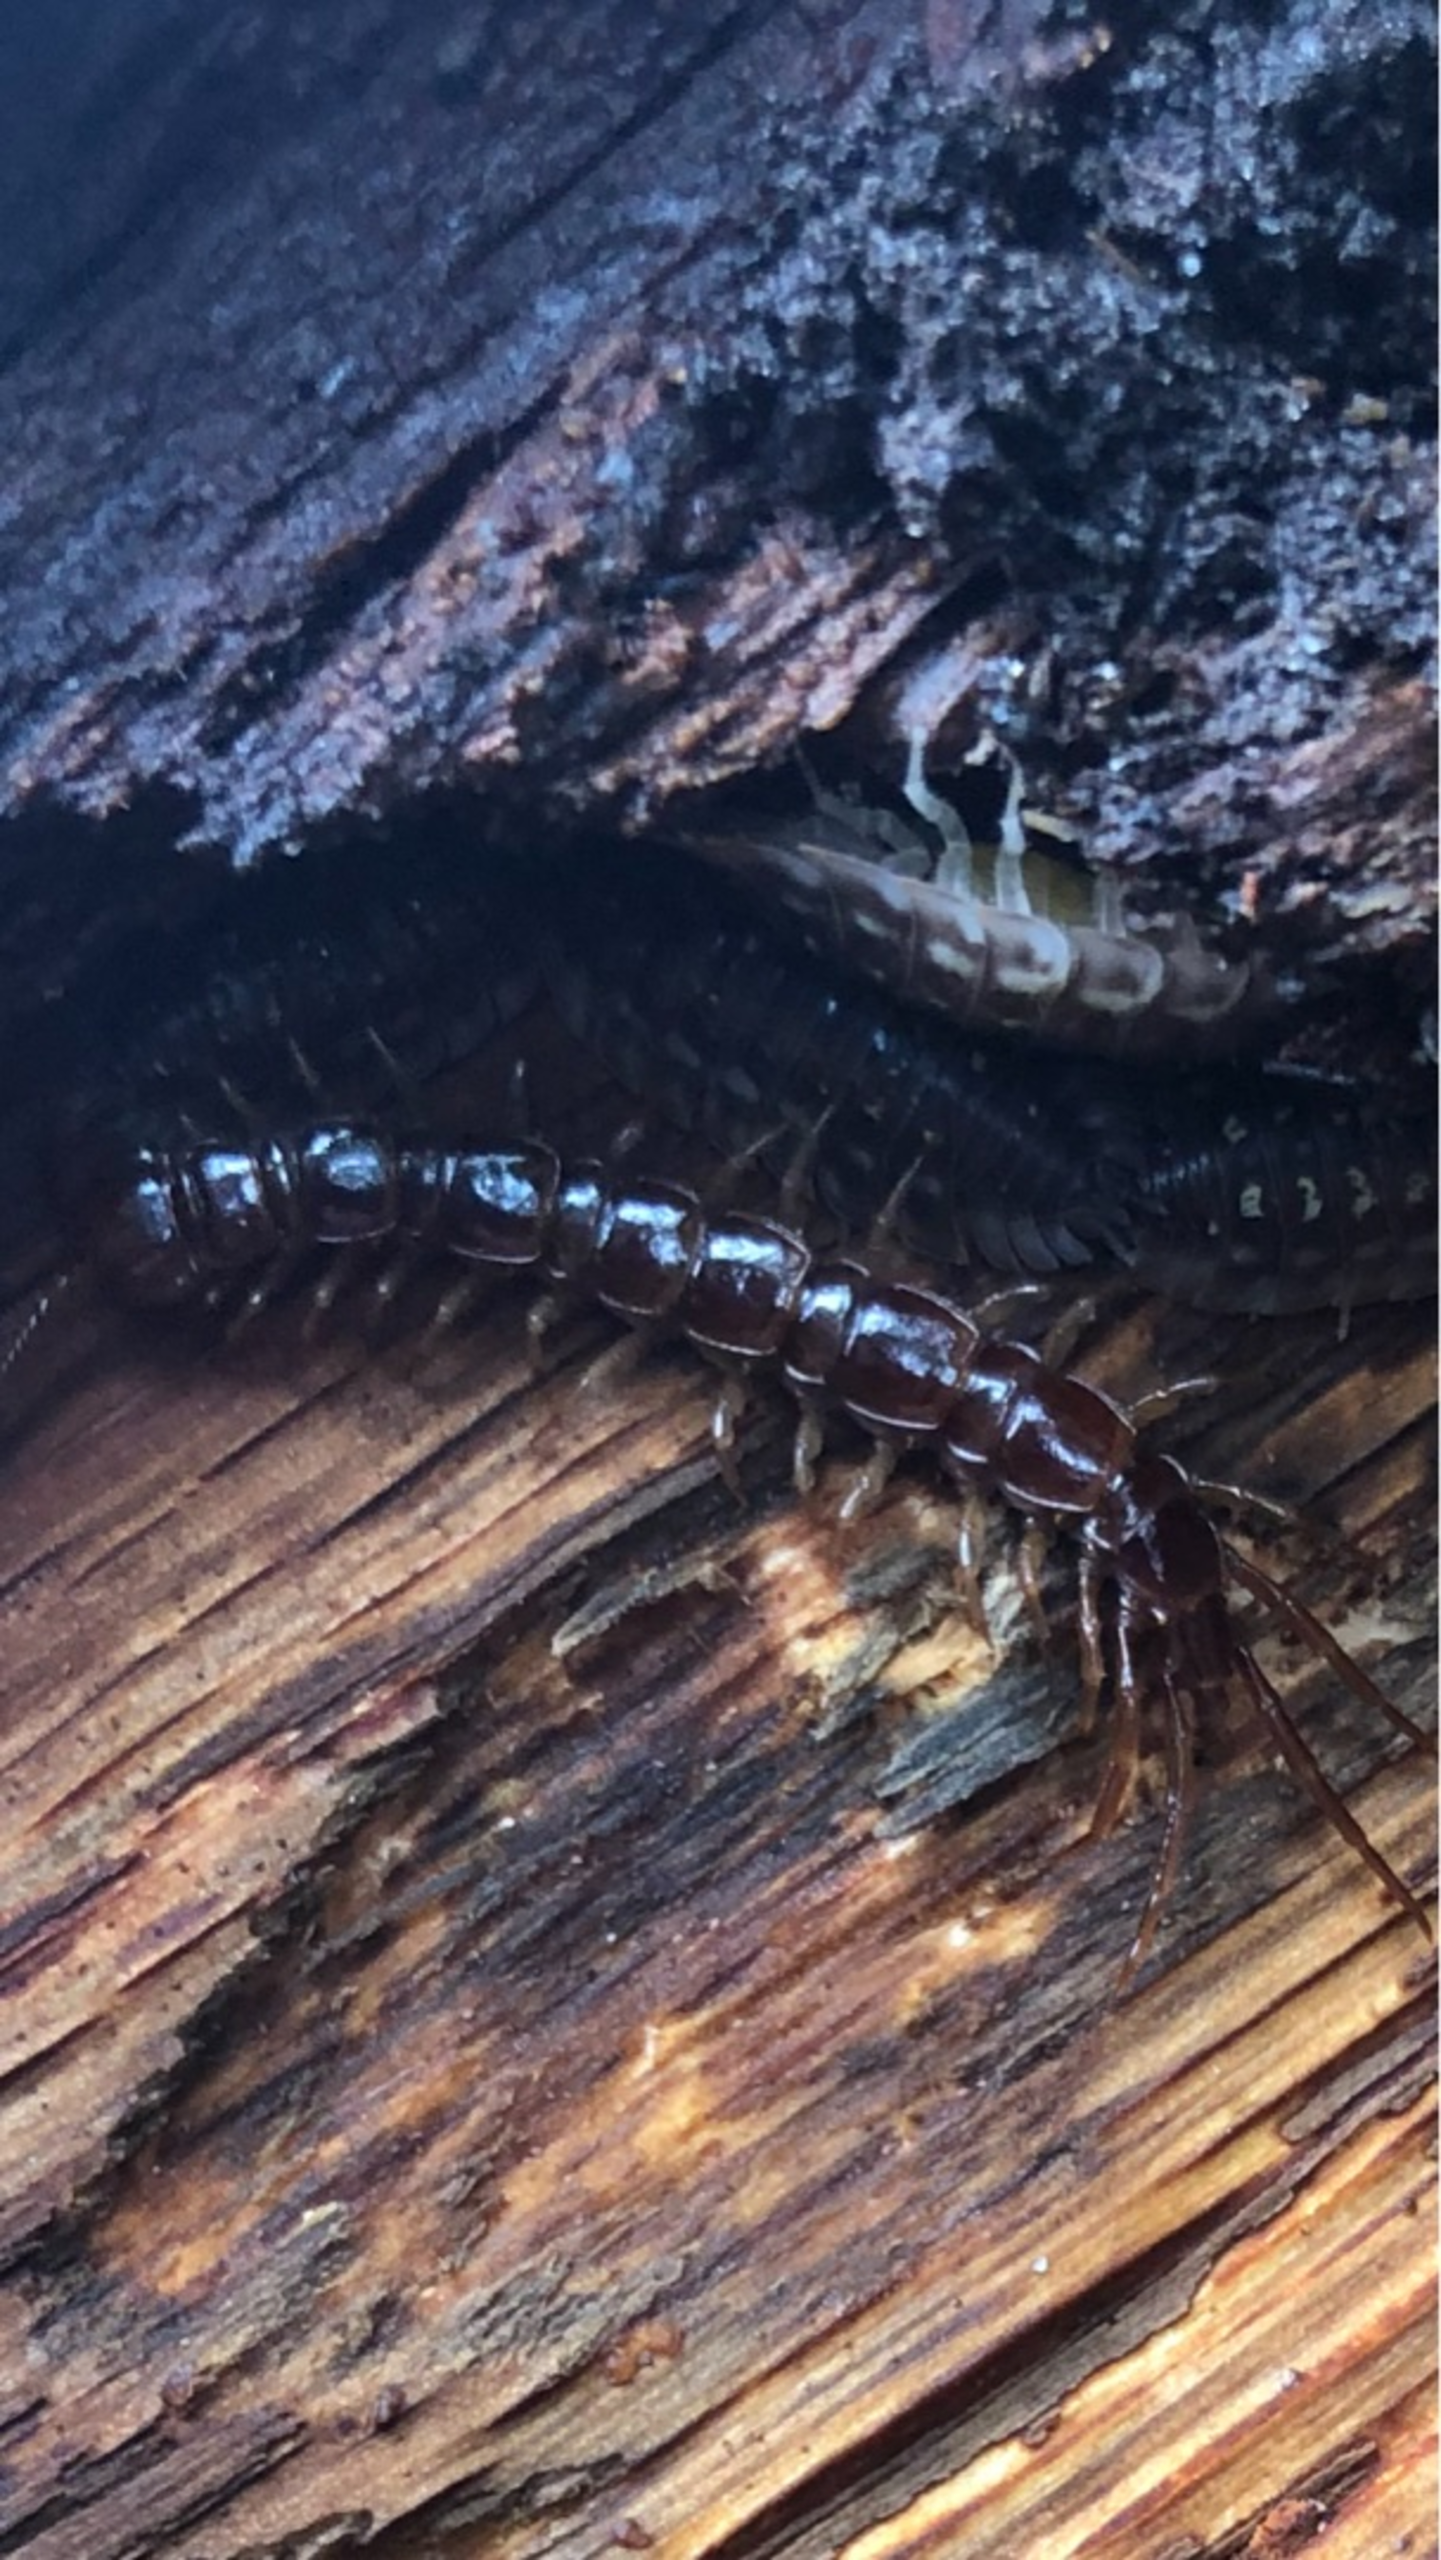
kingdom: Animalia
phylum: Arthropoda
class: Chilopoda
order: Lithobiomorpha
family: Lithobiidae
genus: Lithobius
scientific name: Lithobius forficatus
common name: Stenskolopender
